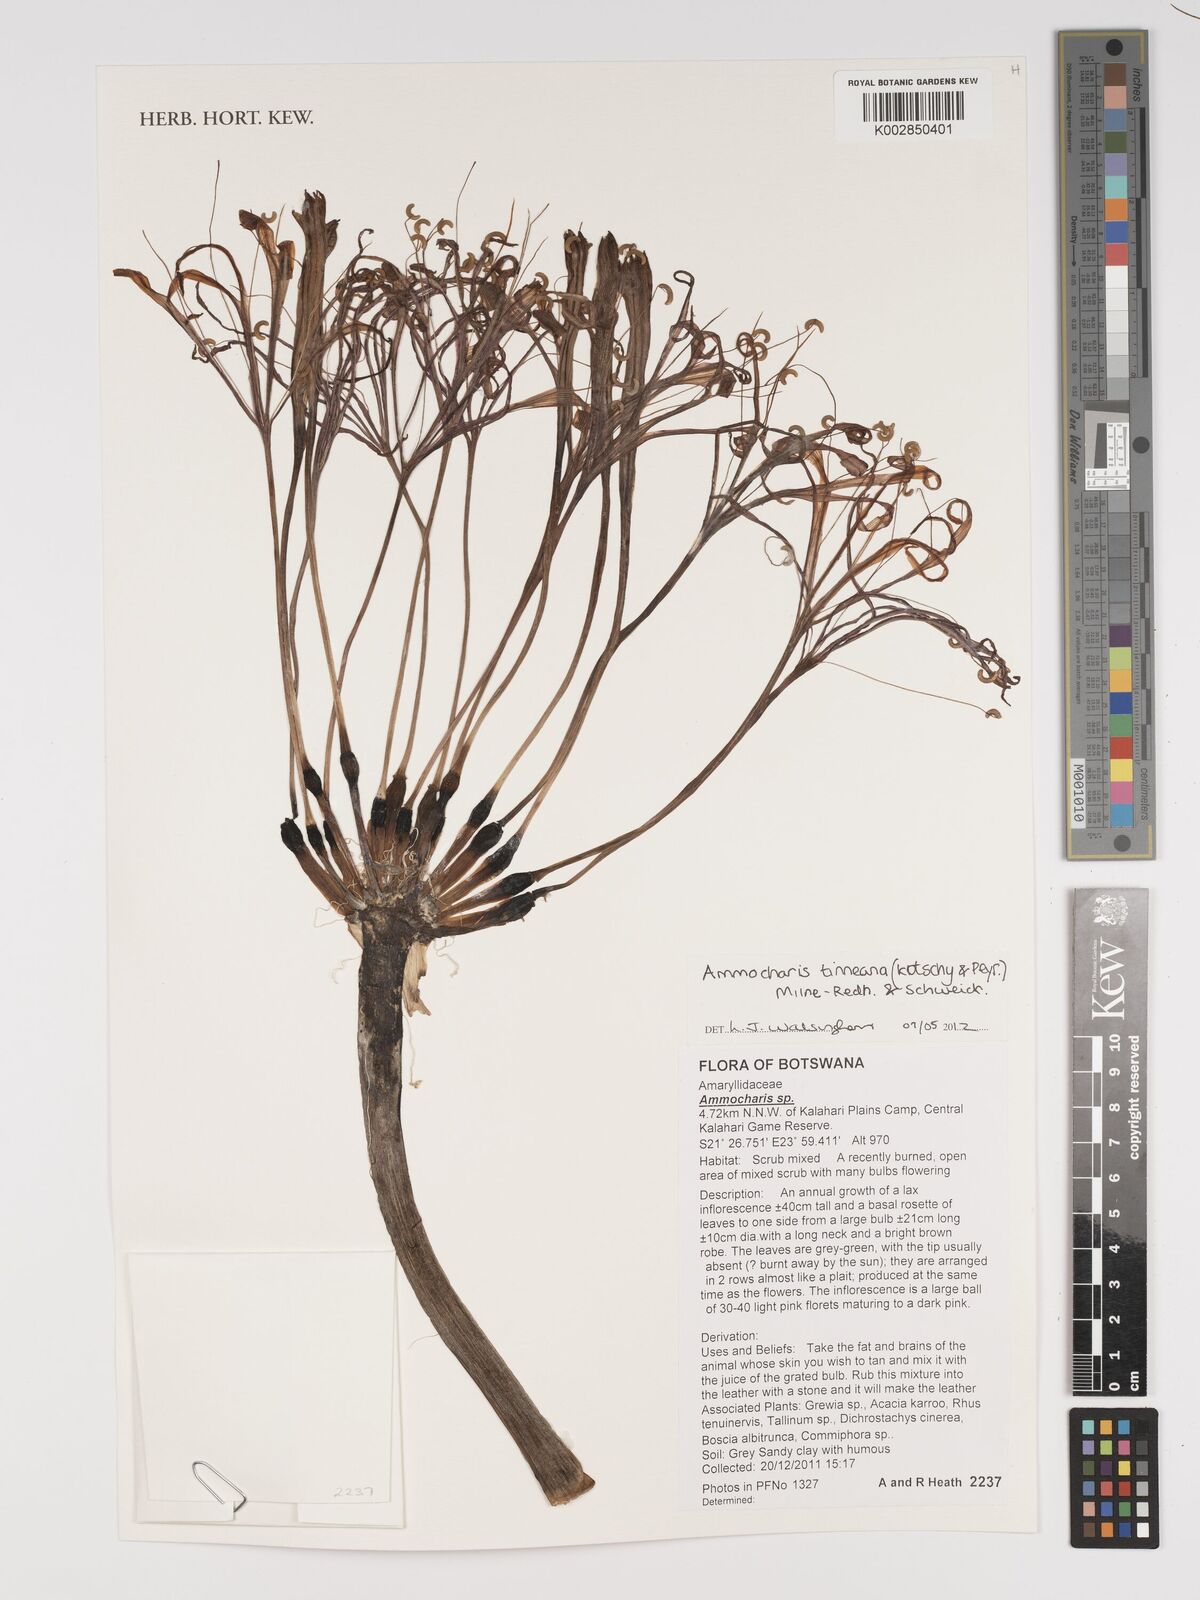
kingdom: Plantae
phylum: Tracheophyta
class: Liliopsida
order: Asparagales
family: Amaryllidaceae
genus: Ammocharis
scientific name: Ammocharis tinneana
